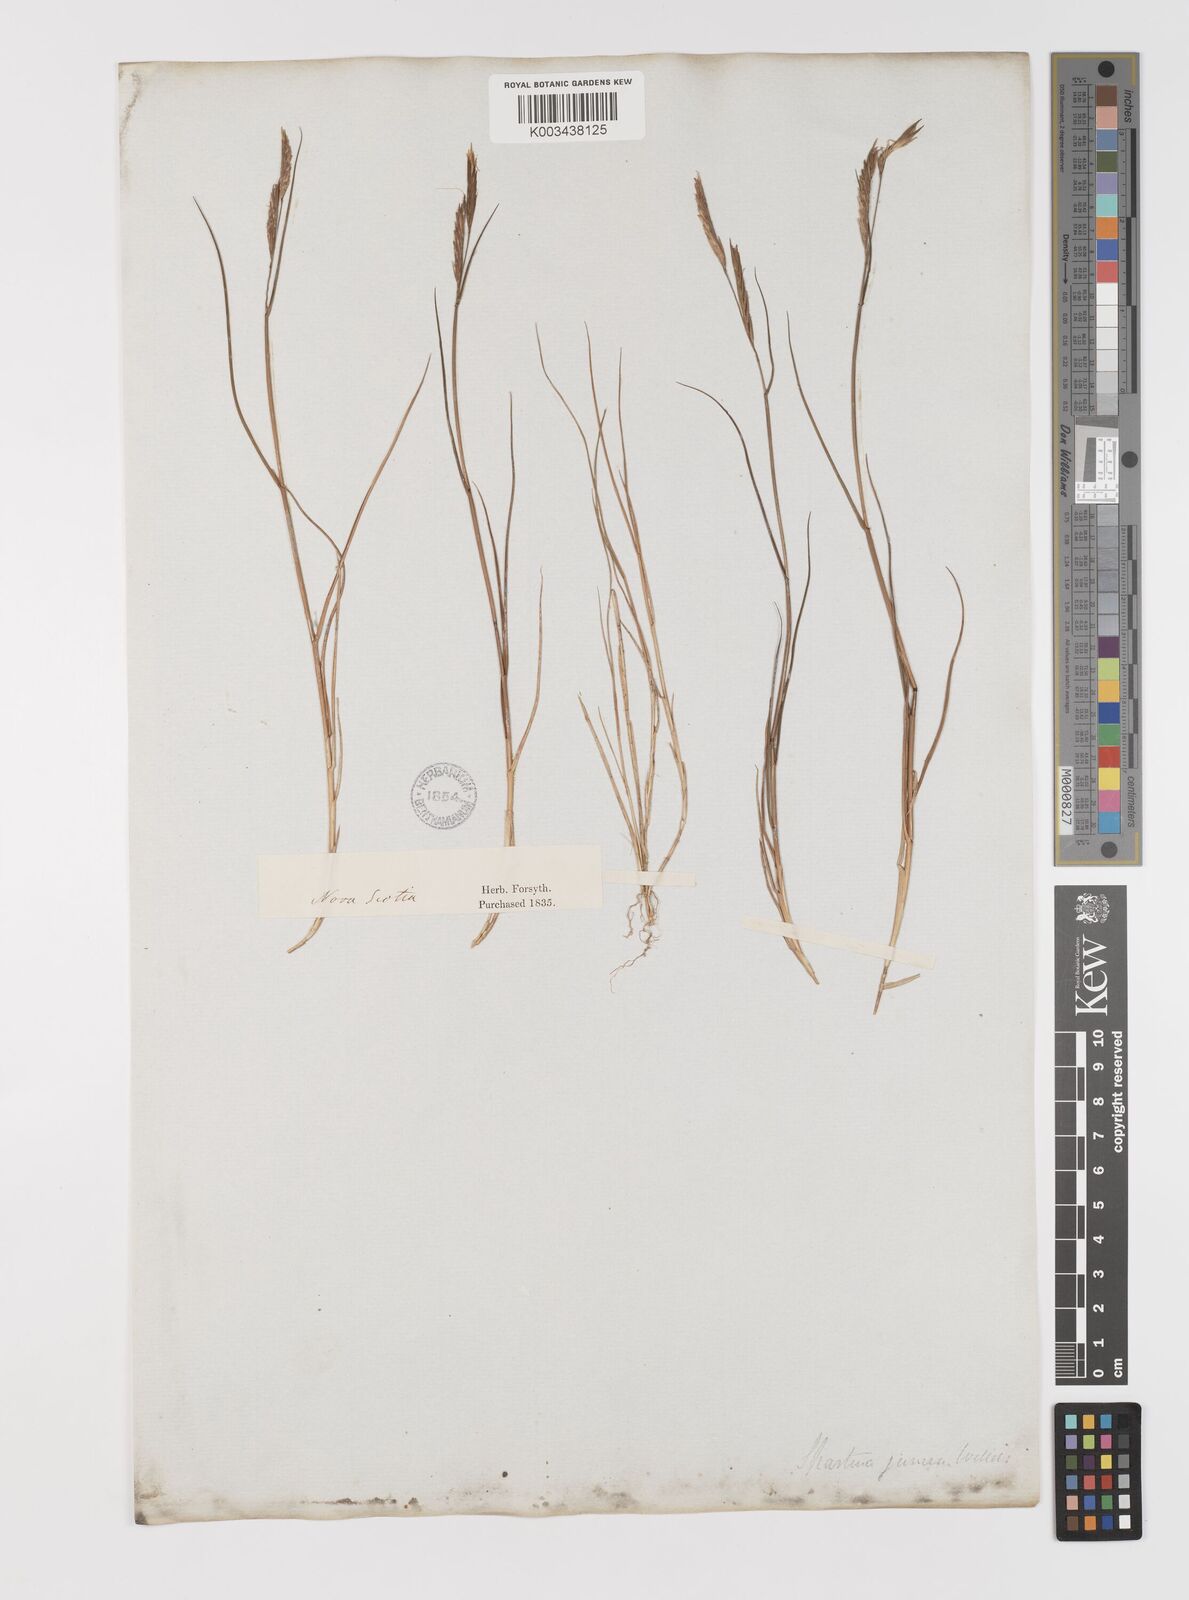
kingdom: Plantae
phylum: Tracheophyta
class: Liliopsida
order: Poales
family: Poaceae
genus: Sporobolus
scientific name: Sporobolus pumilus
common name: Highwater grass
